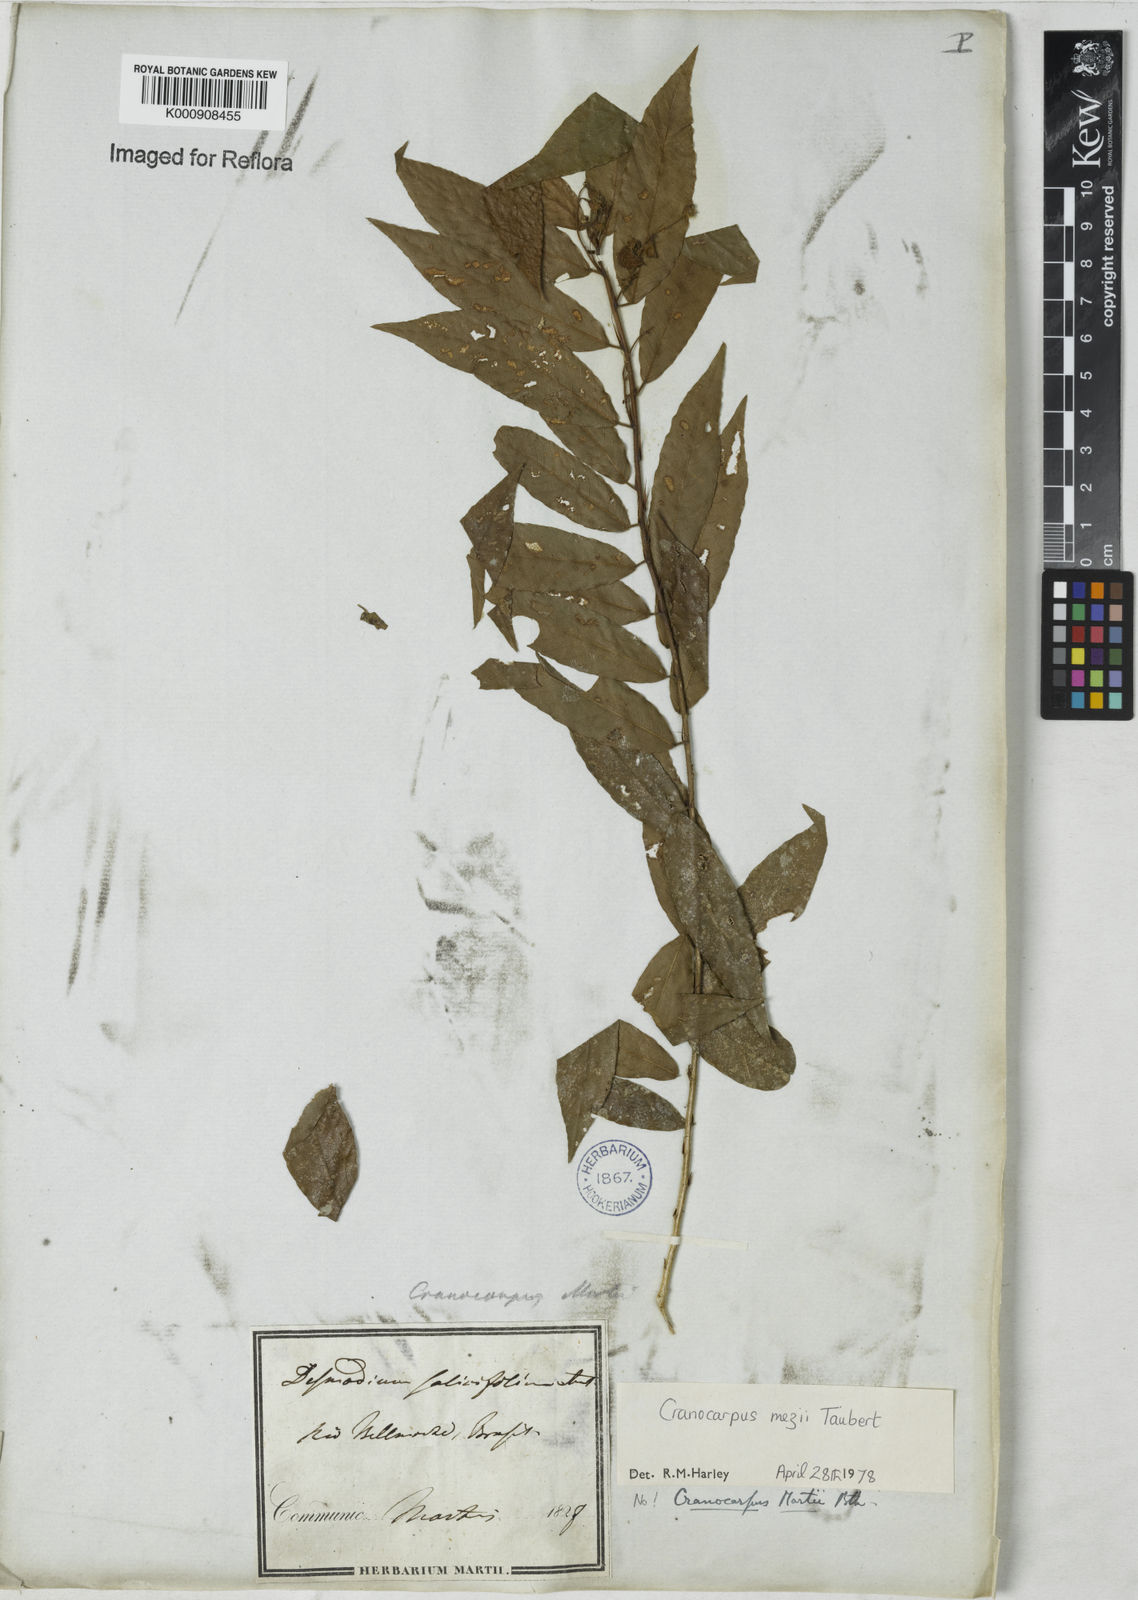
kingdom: Plantae
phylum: Tracheophyta
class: Magnoliopsida
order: Fabales
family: Fabaceae
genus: Cranocarpus
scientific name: Cranocarpus mezii
